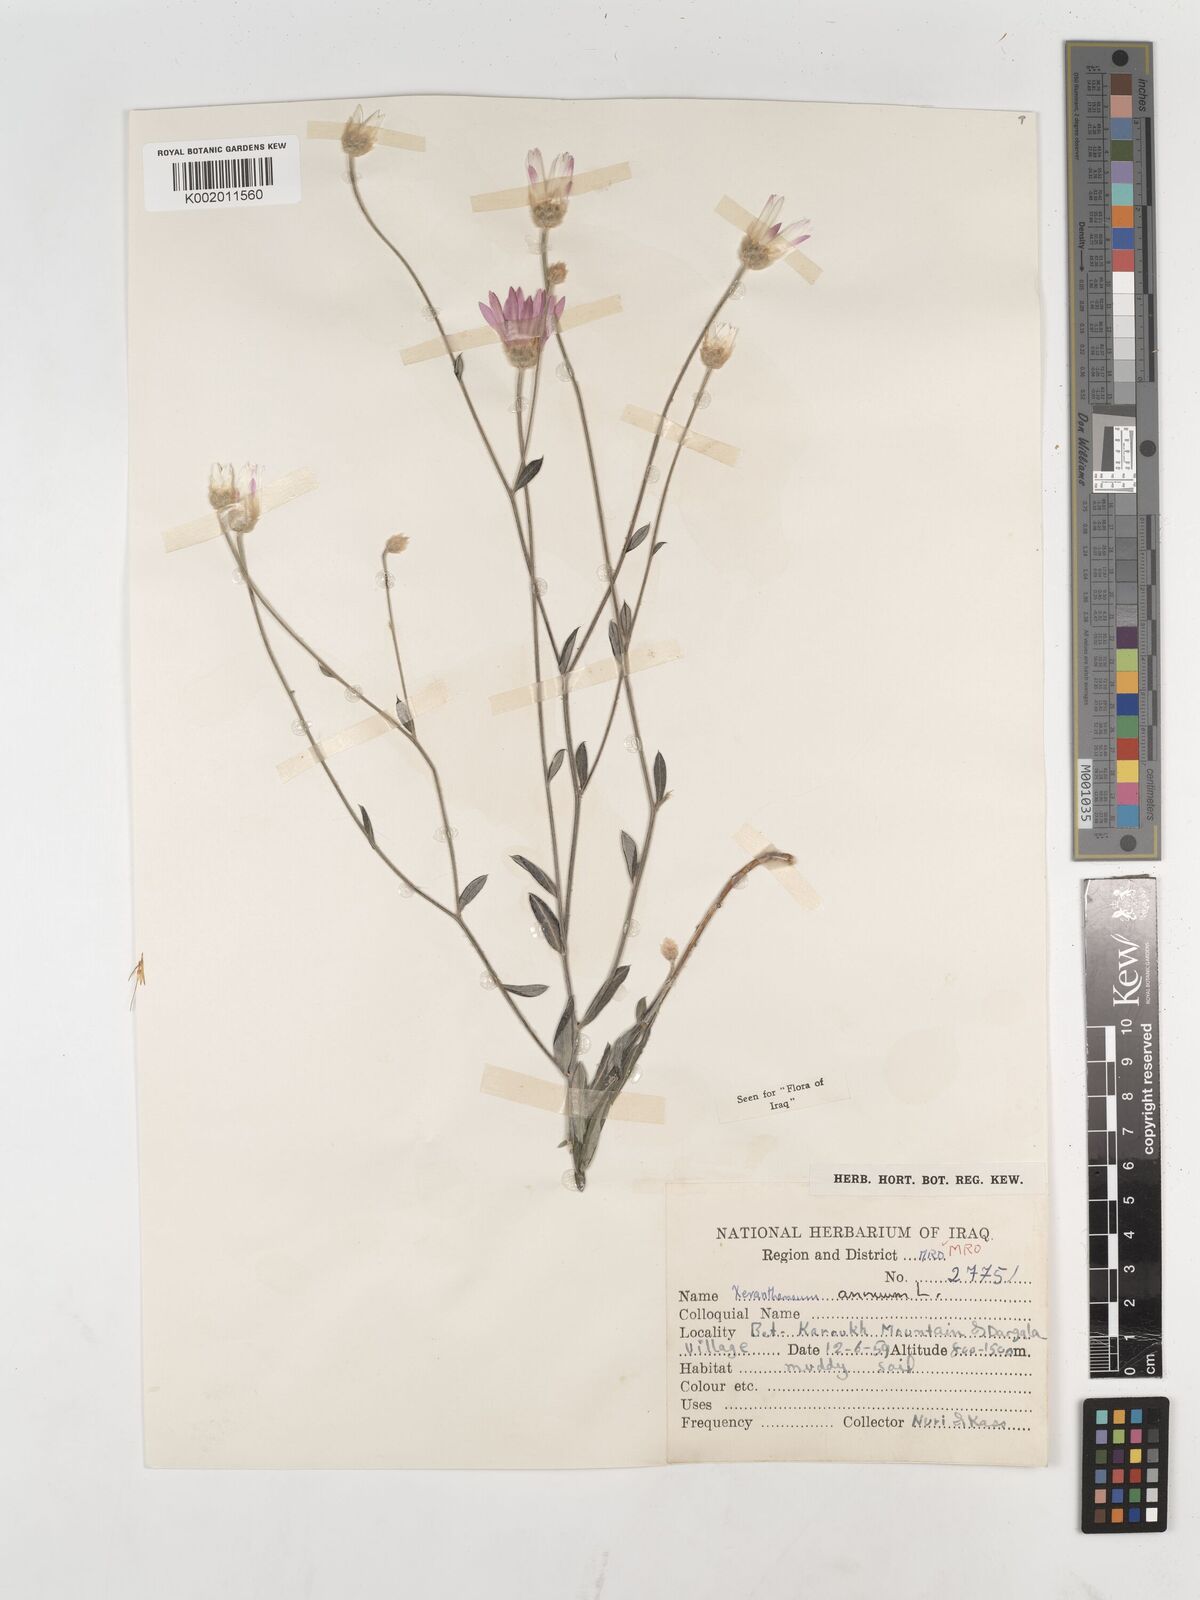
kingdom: Plantae
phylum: Tracheophyta
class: Magnoliopsida
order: Asterales
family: Asteraceae
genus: Xeranthemum
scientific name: Xeranthemum annuum
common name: Immortelle
